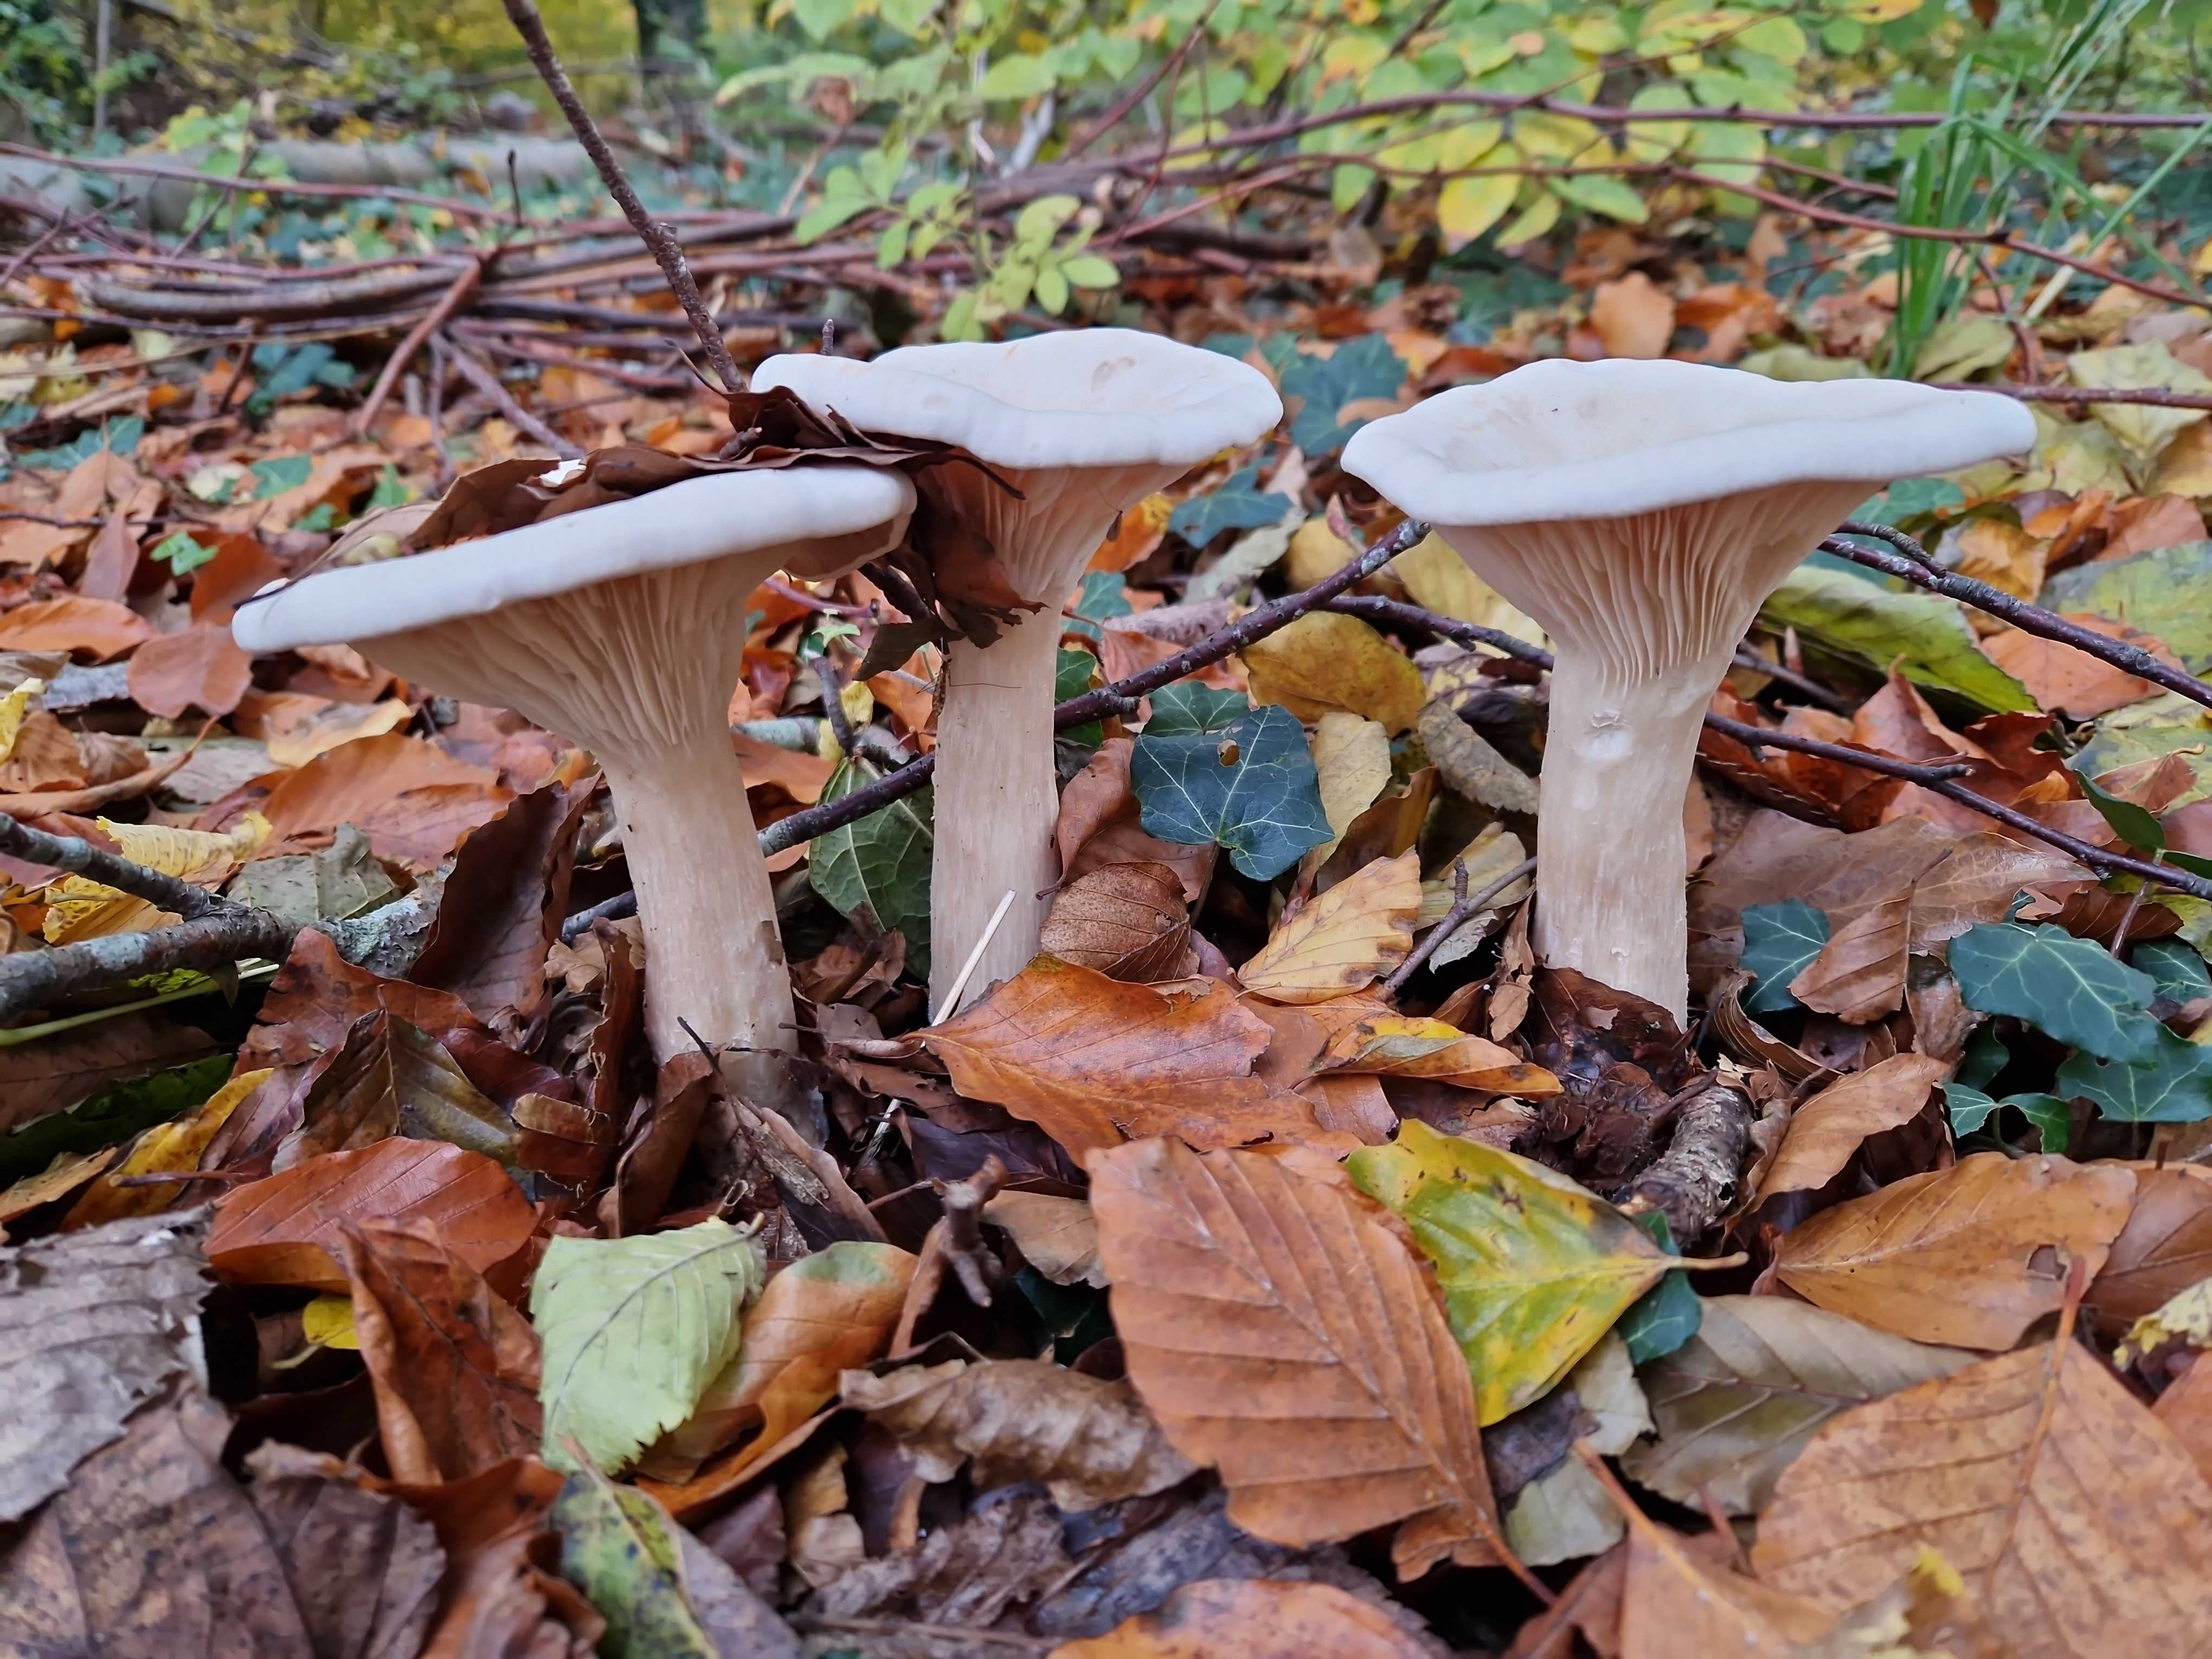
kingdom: Fungi
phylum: Basidiomycota
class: Agaricomycetes
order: Agaricales
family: Tricholomataceae
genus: Infundibulicybe
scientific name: Infundibulicybe geotropa
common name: stor tragthat
